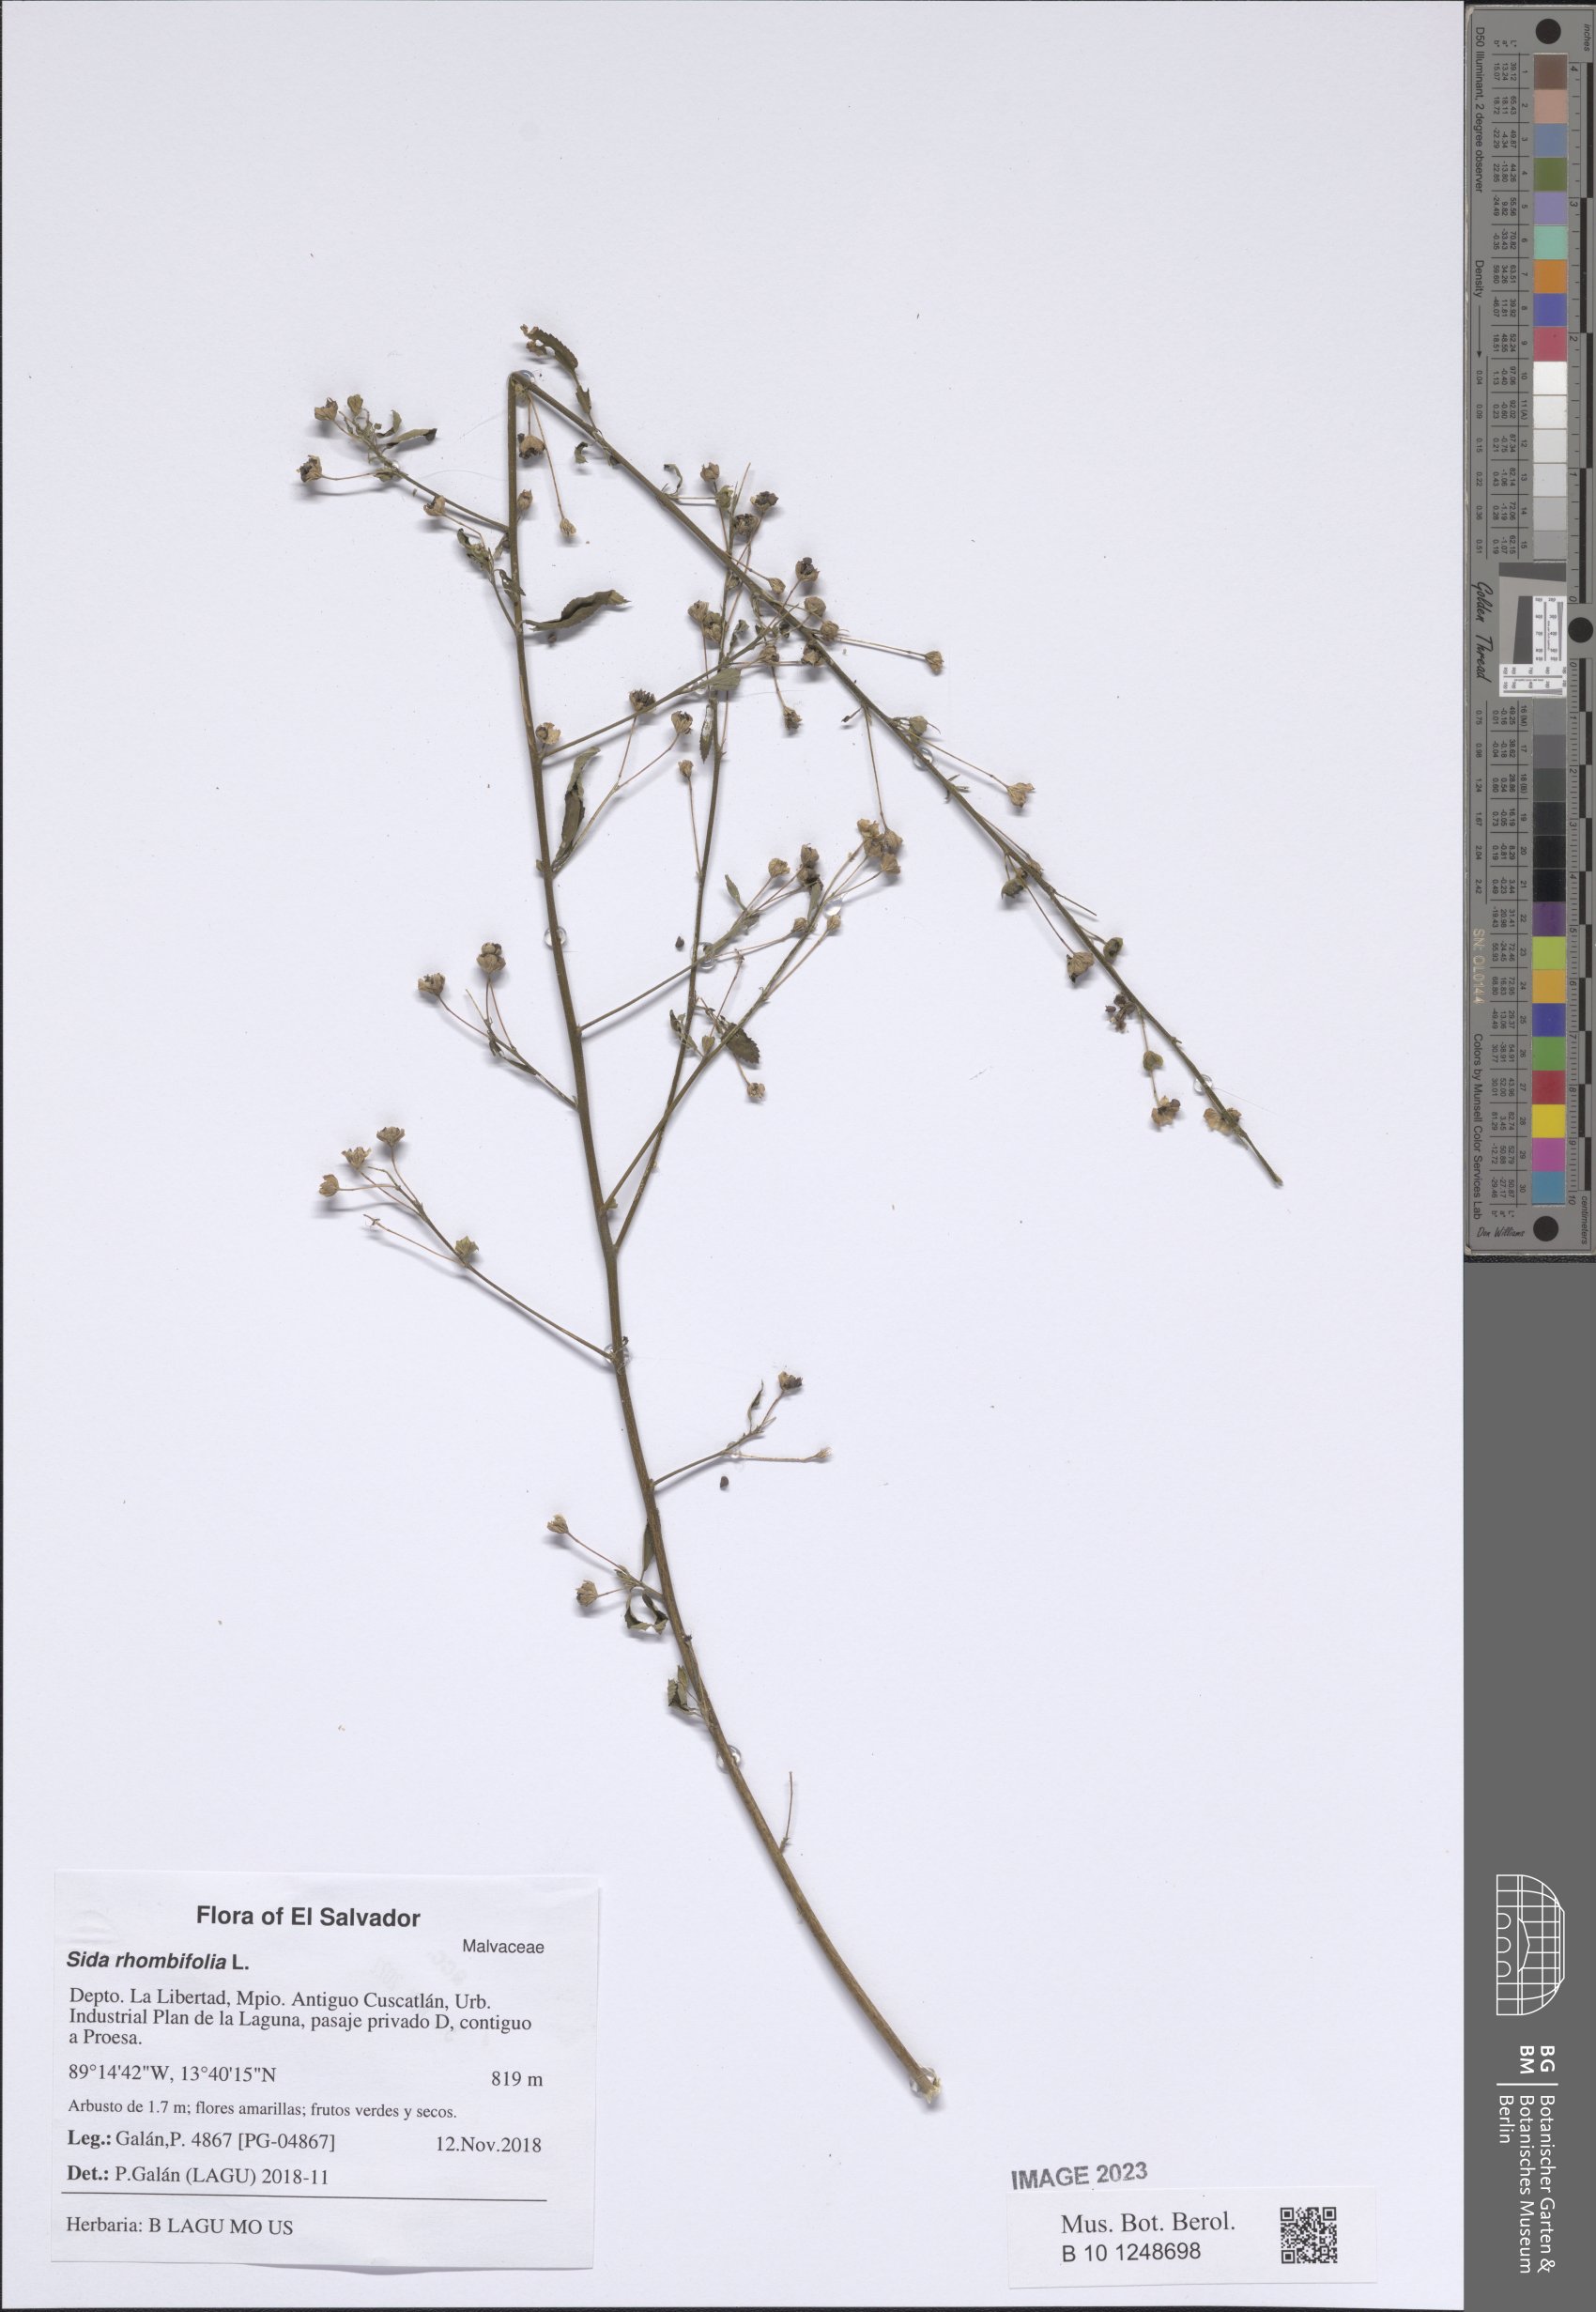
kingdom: Plantae
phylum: Tracheophyta
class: Magnoliopsida
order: Malvales
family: Malvaceae
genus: Sida
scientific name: Sida rhombifolia
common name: Queensland-hemp
